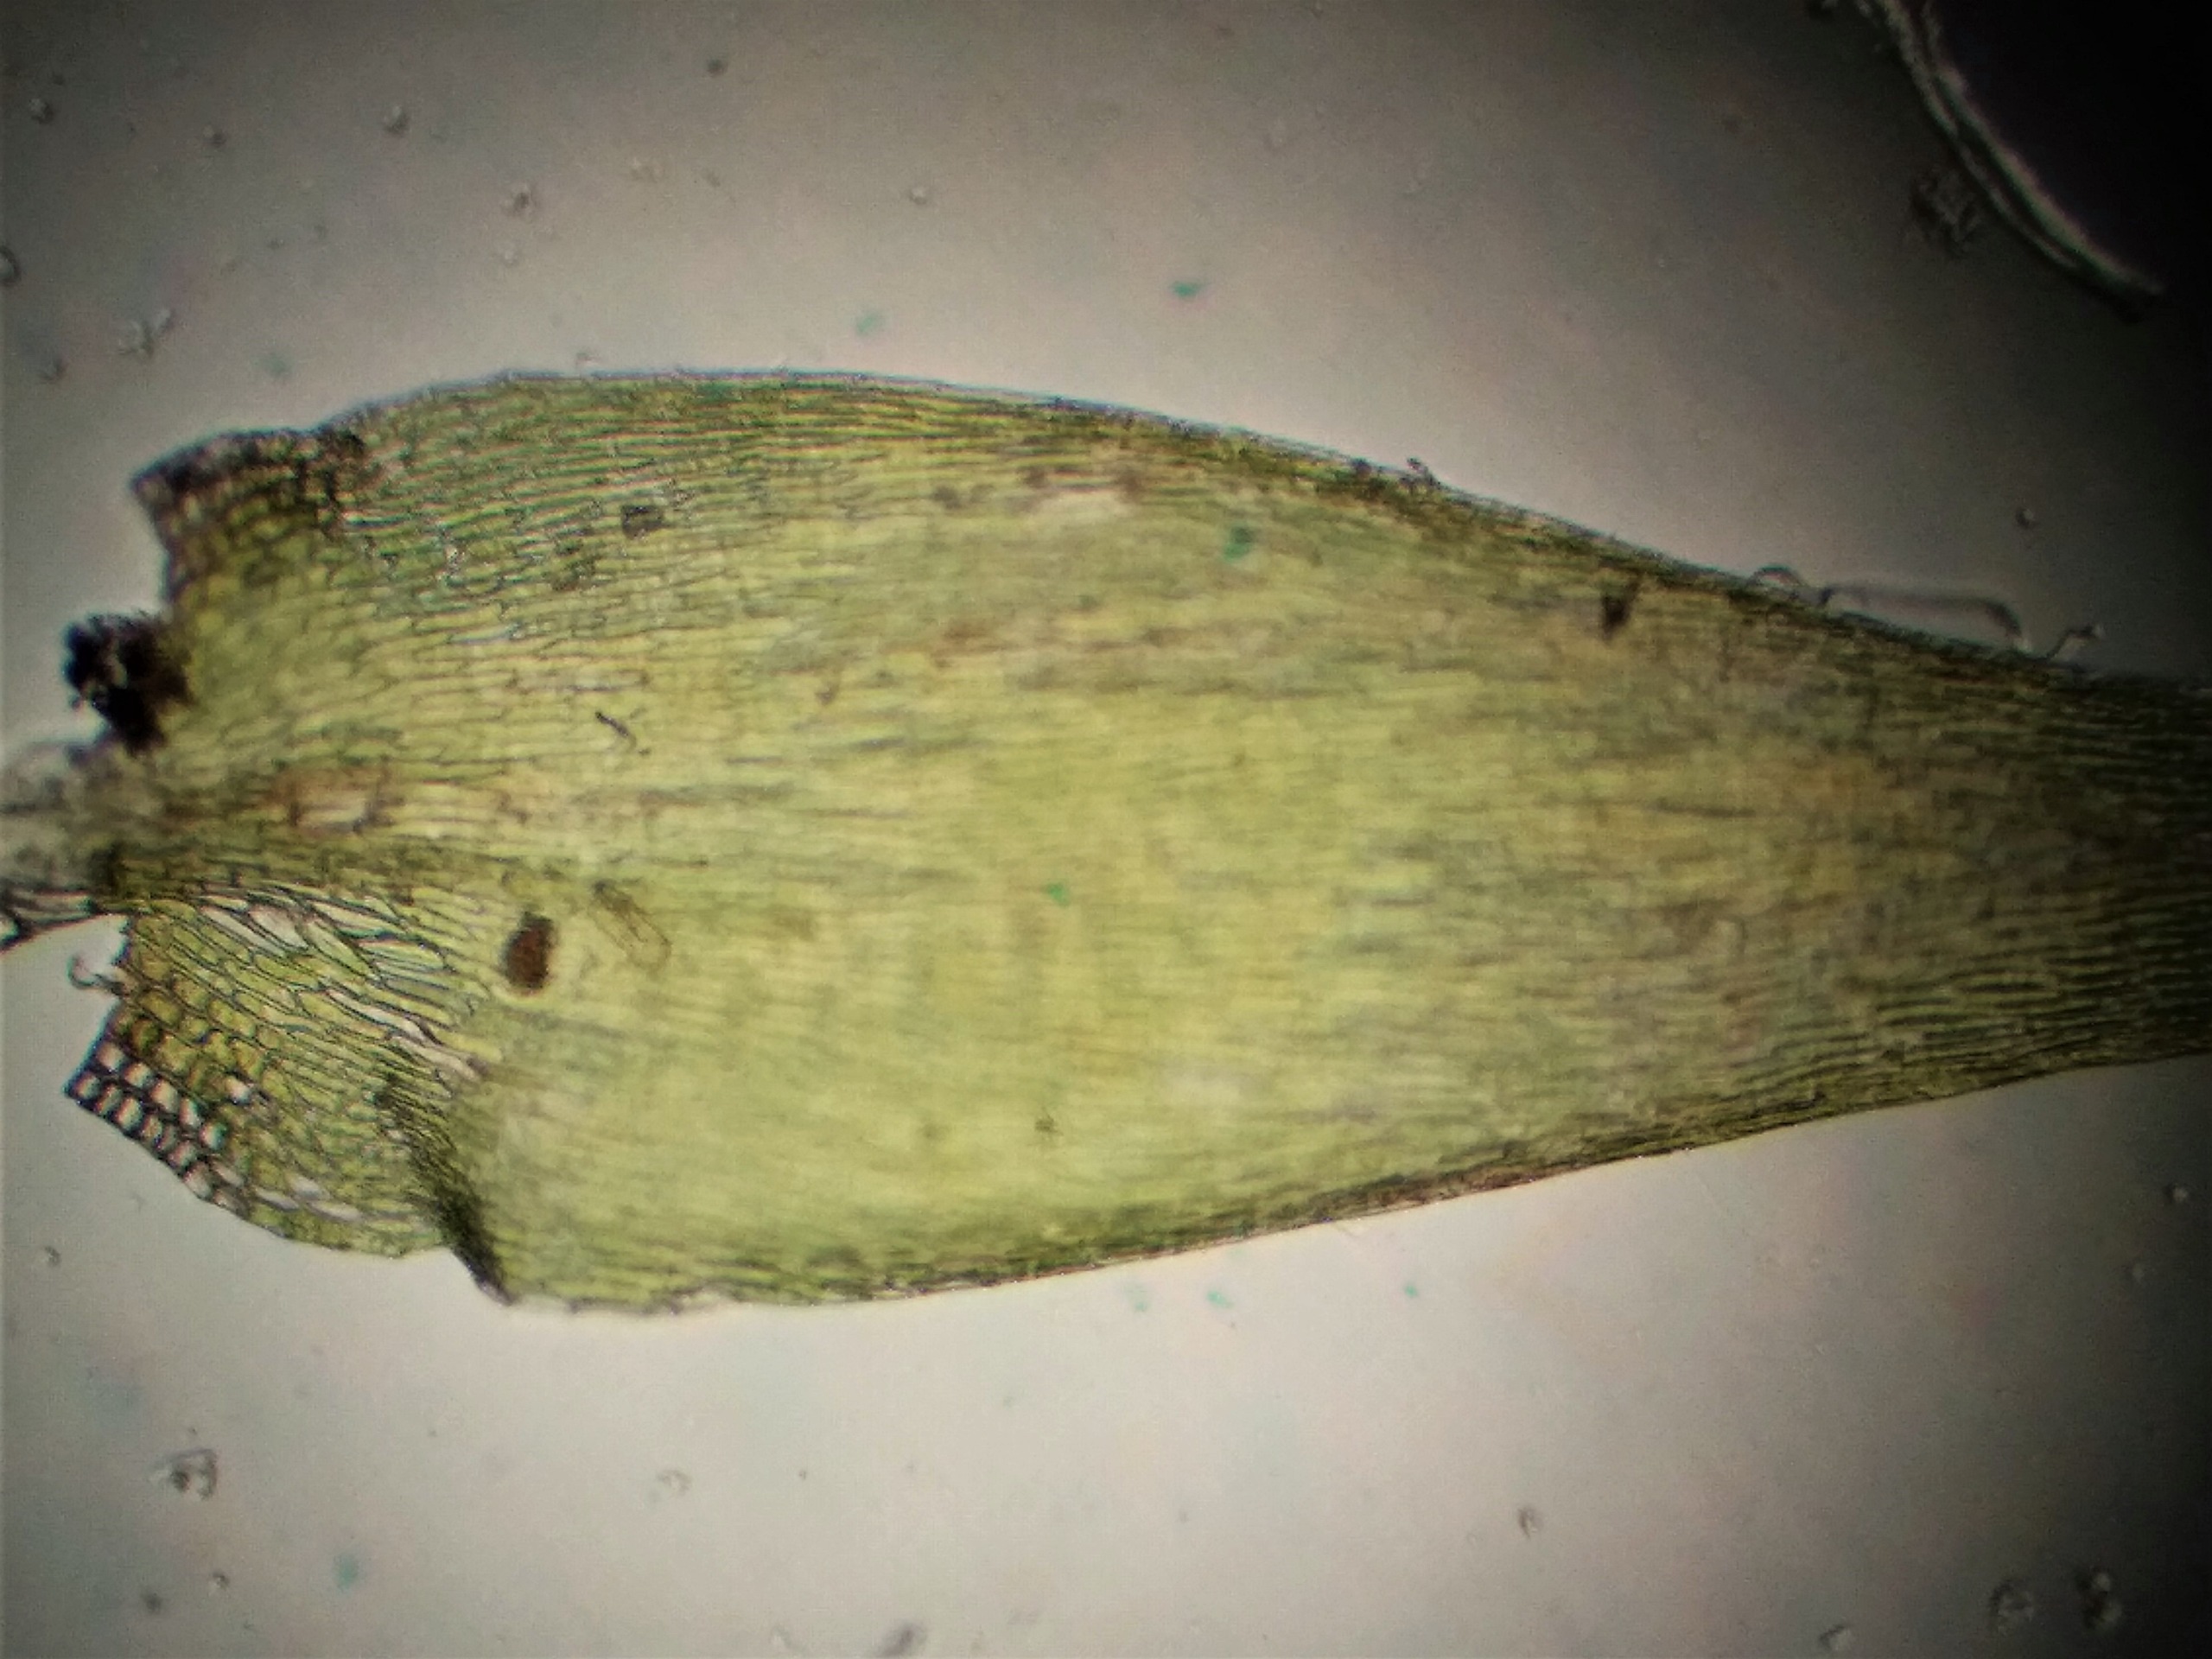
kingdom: Plantae
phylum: Bryophyta
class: Bryopsida
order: Hypnales
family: Pylaisiaceae
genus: Pylaisia
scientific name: Pylaisia polyantha
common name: Mangefrugtet aspemos
